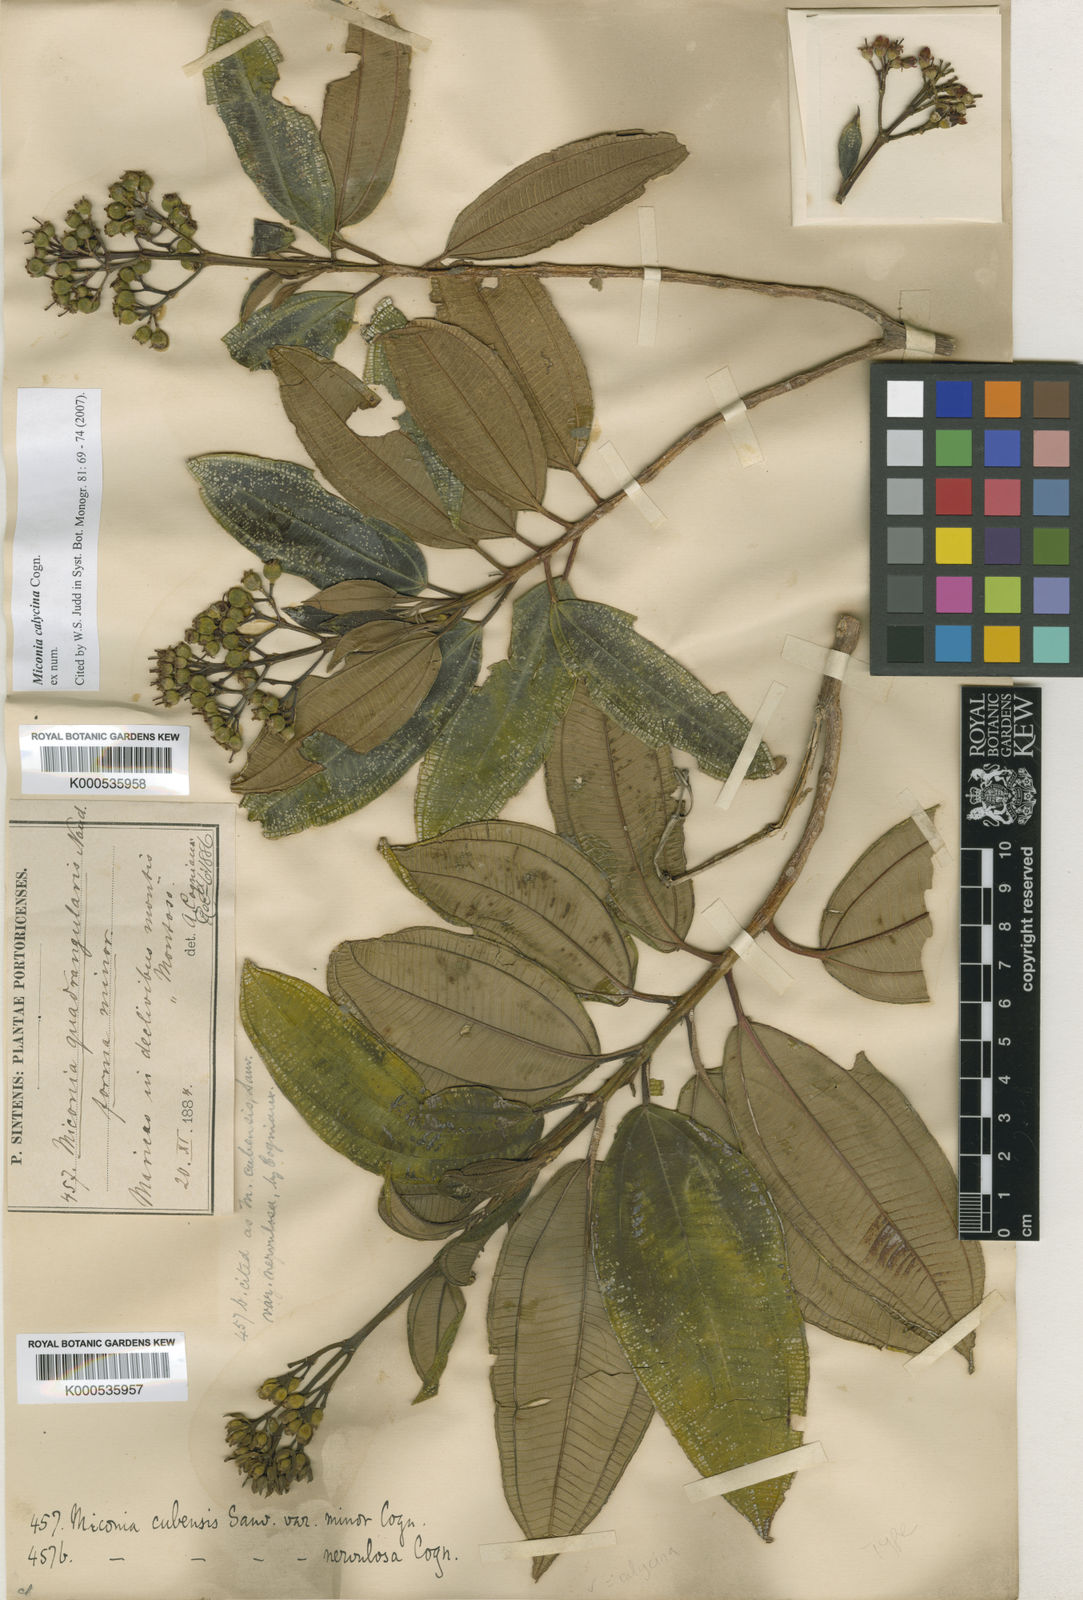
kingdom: Plantae
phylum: Tracheophyta
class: Magnoliopsida
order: Myrtales
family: Melastomataceae
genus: Miconia
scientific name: Miconia calycina
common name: Forest johnnyberry
